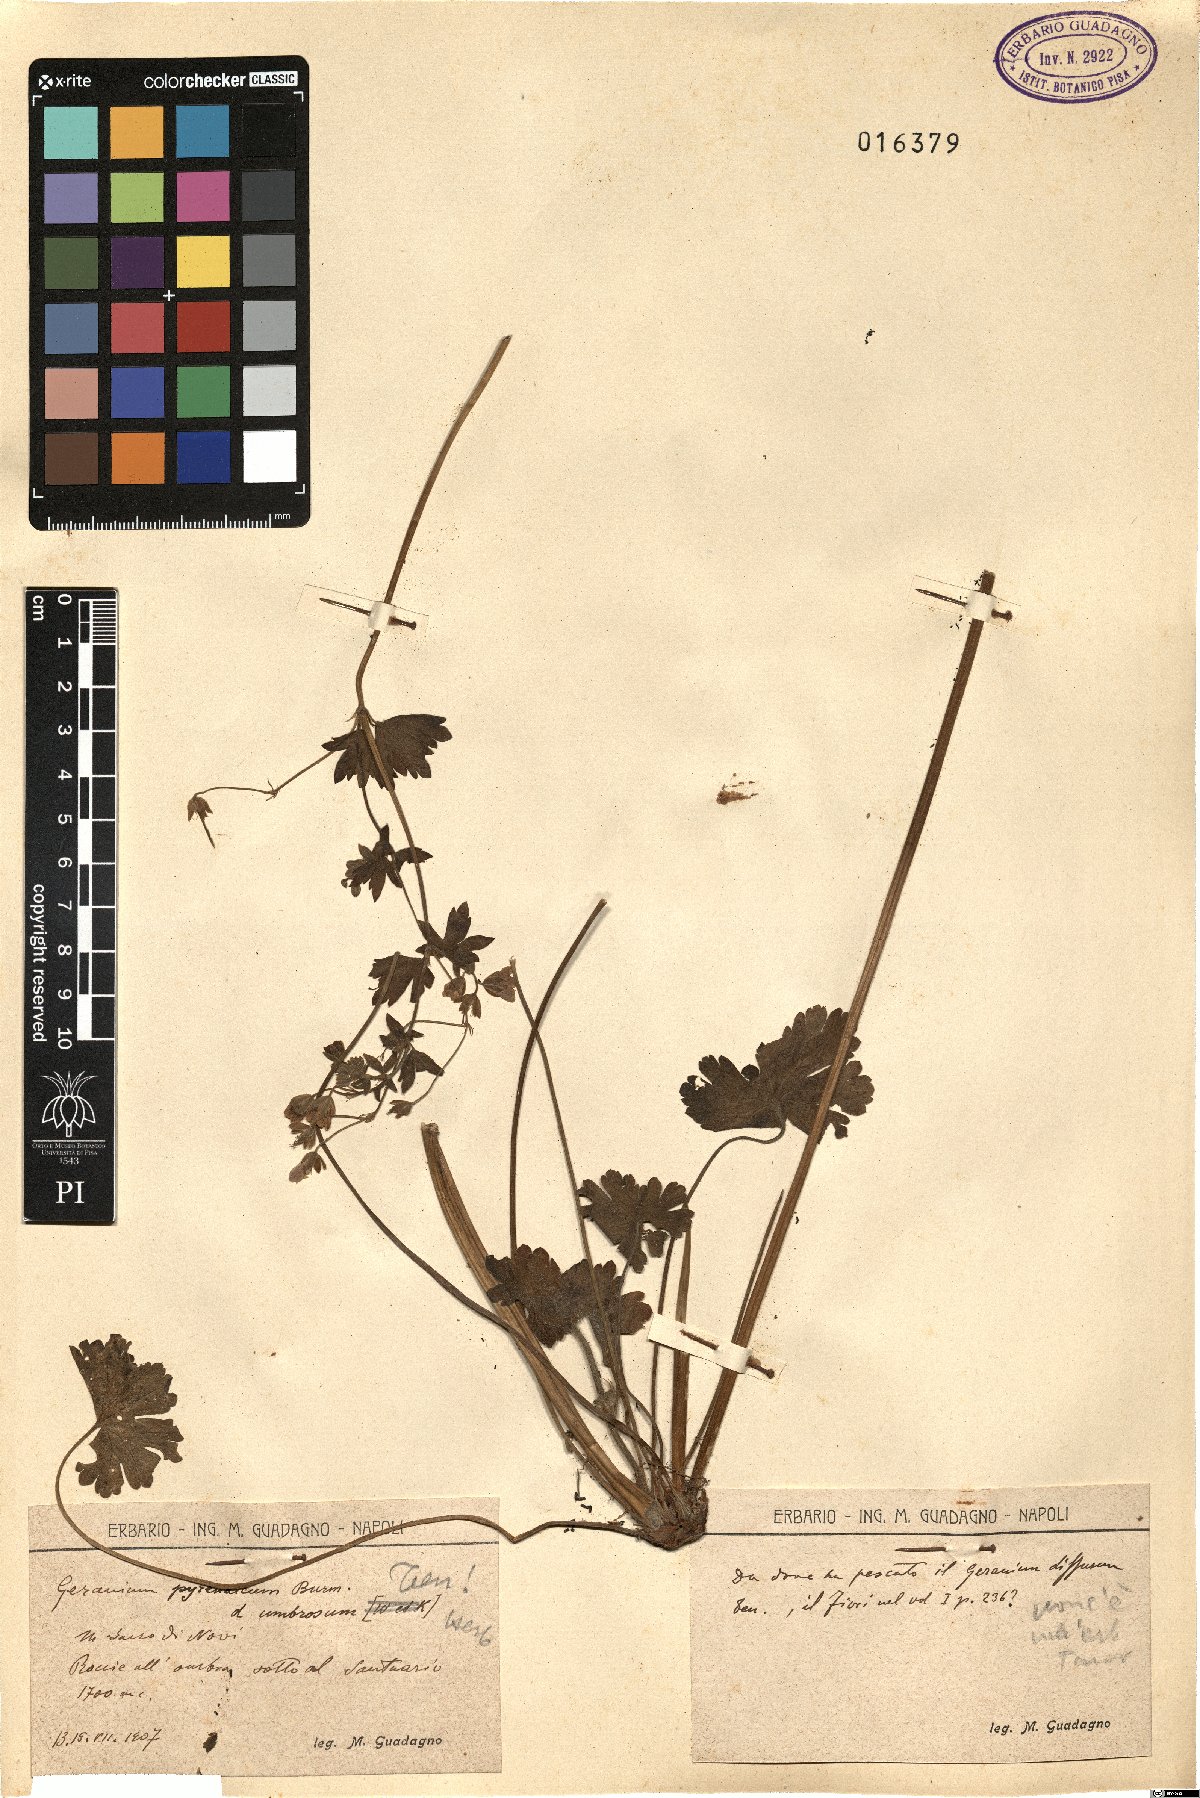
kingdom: Plantae
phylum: Tracheophyta
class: Magnoliopsida
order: Geraniales
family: Geraniaceae
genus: Geranium
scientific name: Geranium pyrenaicum
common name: Hedgerow crane's-bill
